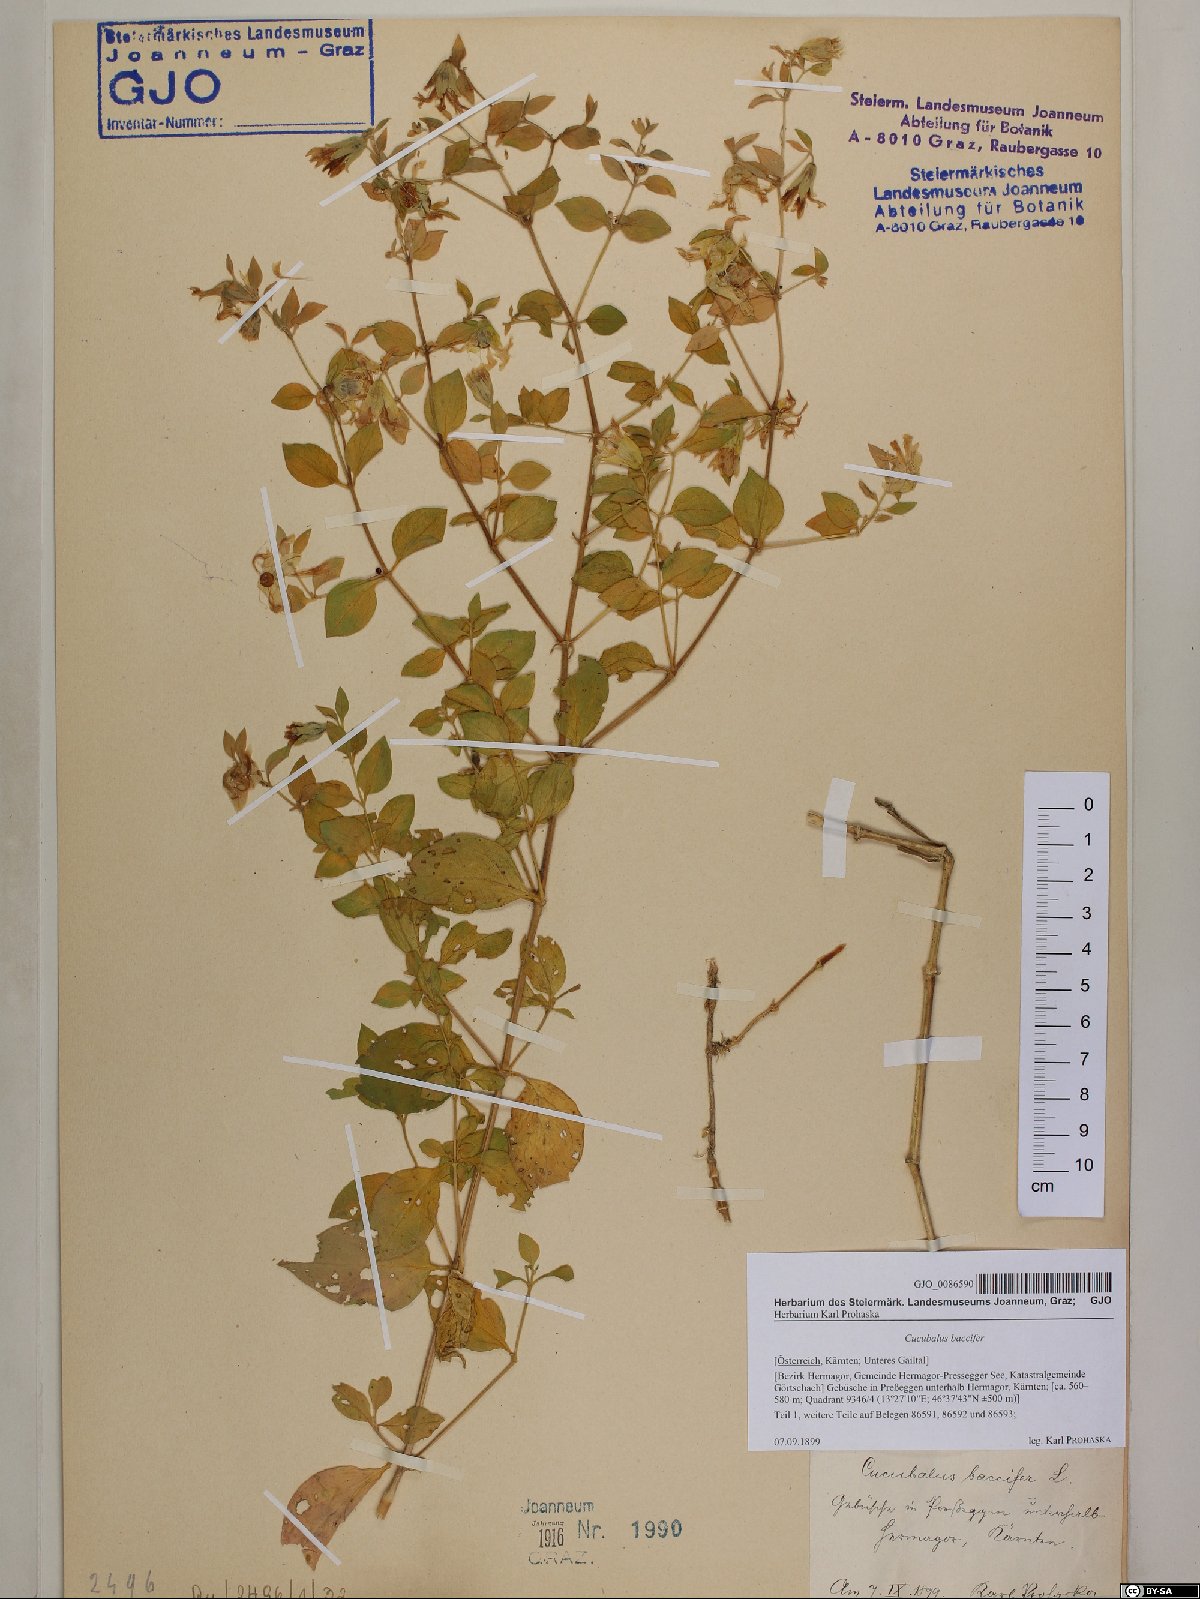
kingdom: Plantae
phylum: Tracheophyta
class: Magnoliopsida
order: Caryophyllales
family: Caryophyllaceae
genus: Silene
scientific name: Silene baccifera
